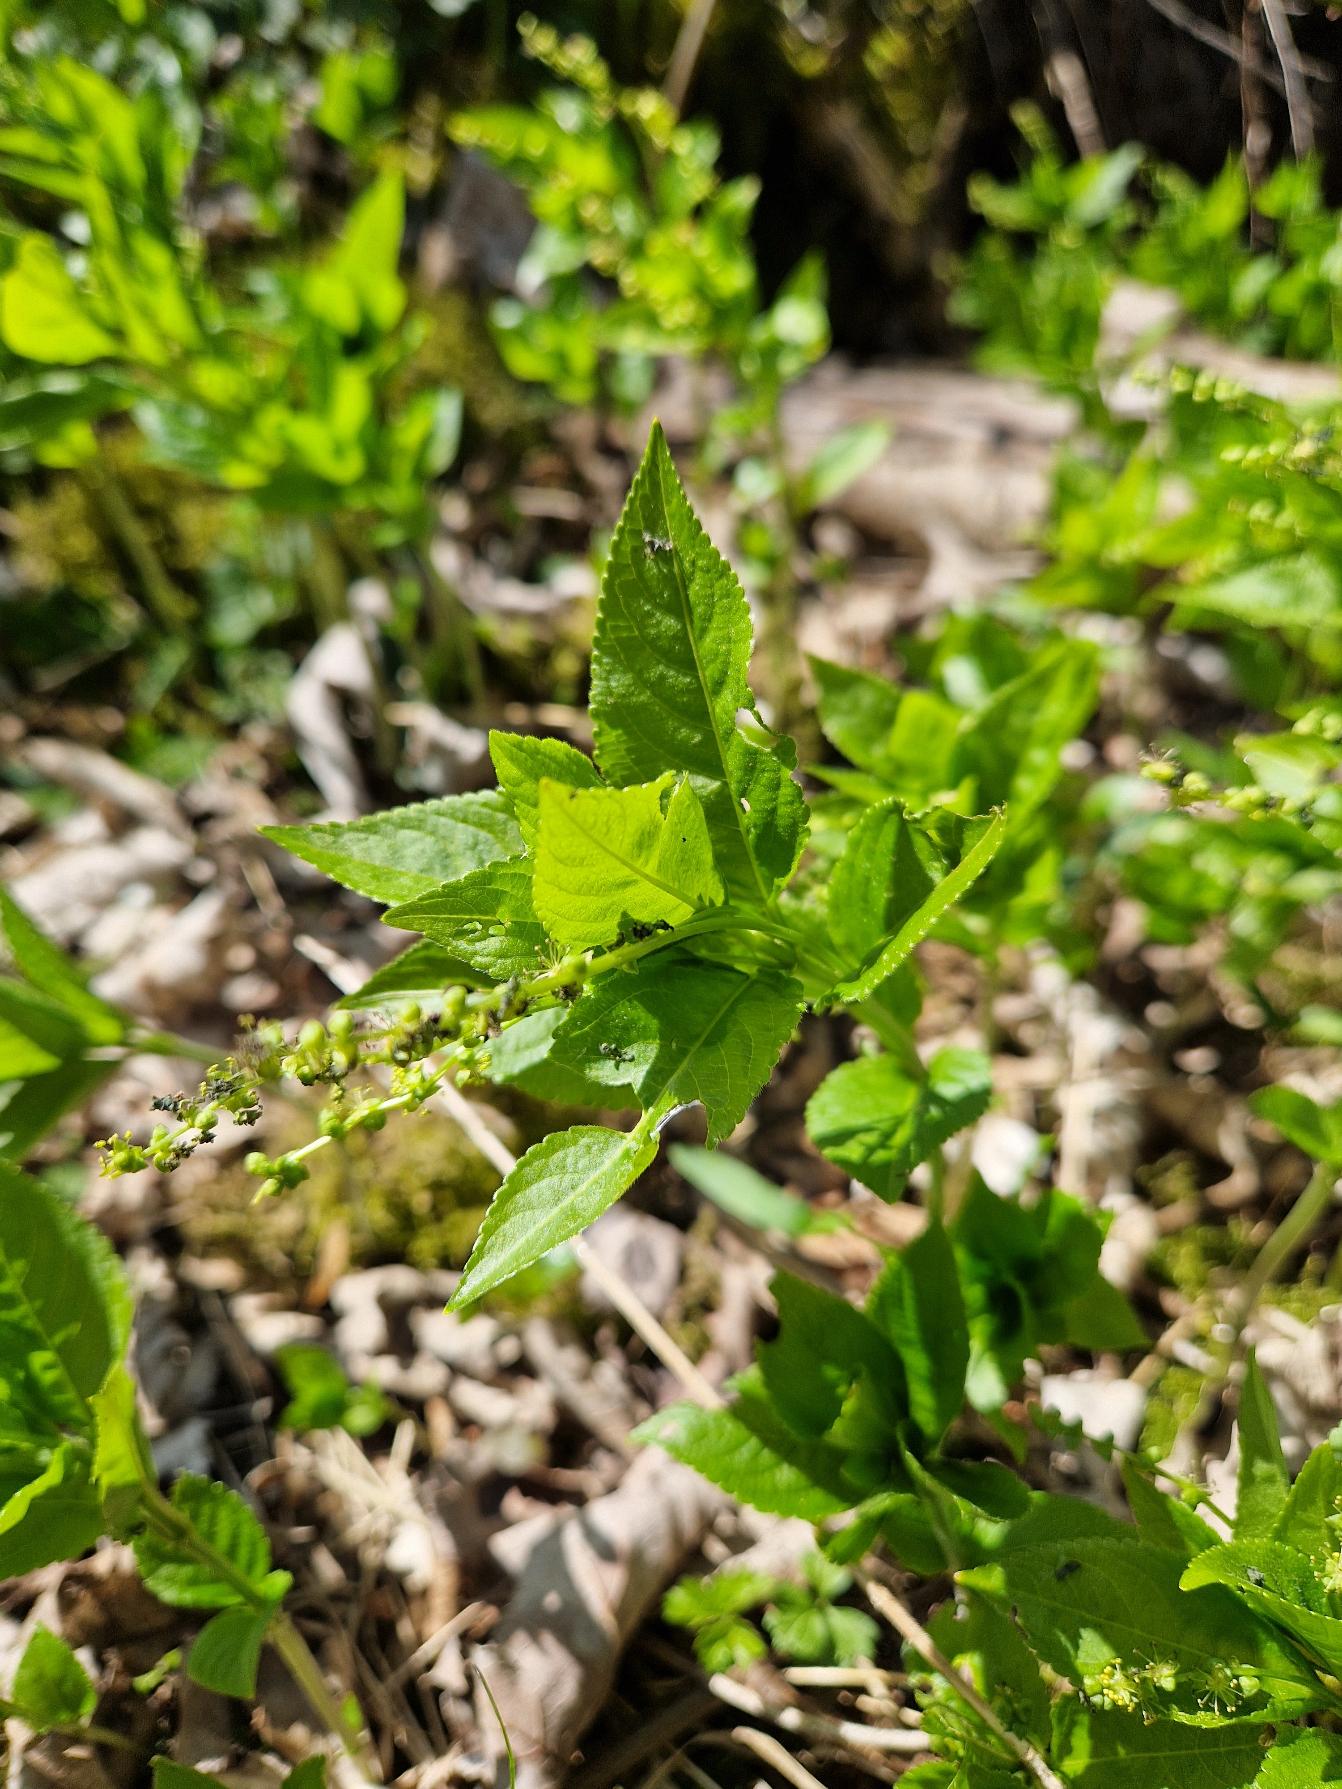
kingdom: Plantae
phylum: Tracheophyta
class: Magnoliopsida
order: Malpighiales
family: Euphorbiaceae
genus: Mercurialis
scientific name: Mercurialis perennis
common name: Almindelig bingelurt
